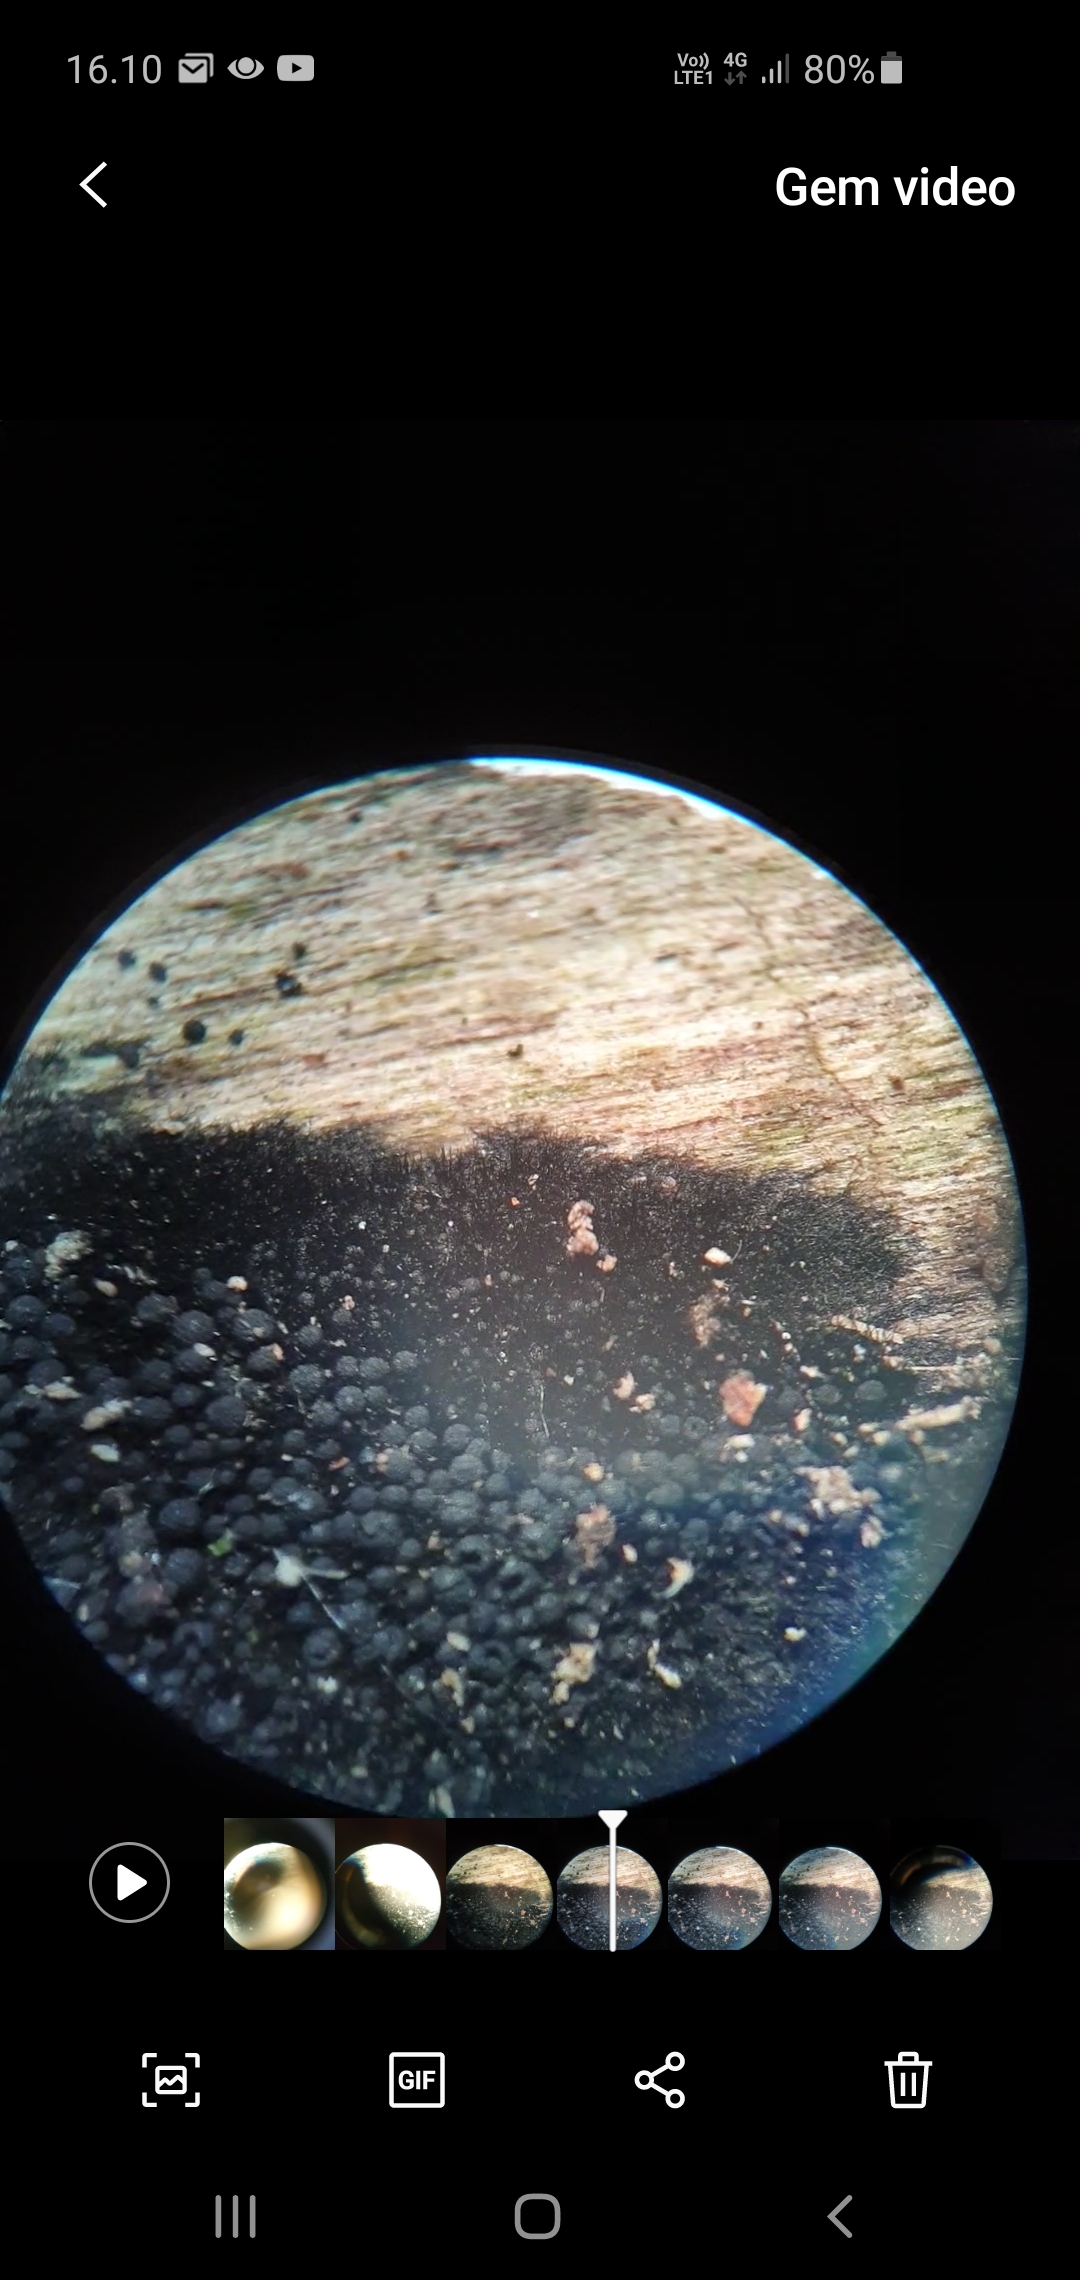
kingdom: Fungi
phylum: Ascomycota
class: Sordariomycetes
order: Coronophorales
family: Chaetosphaerellaceae
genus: Chaetosphaerella
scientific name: Chaetosphaerella phaeostroma
